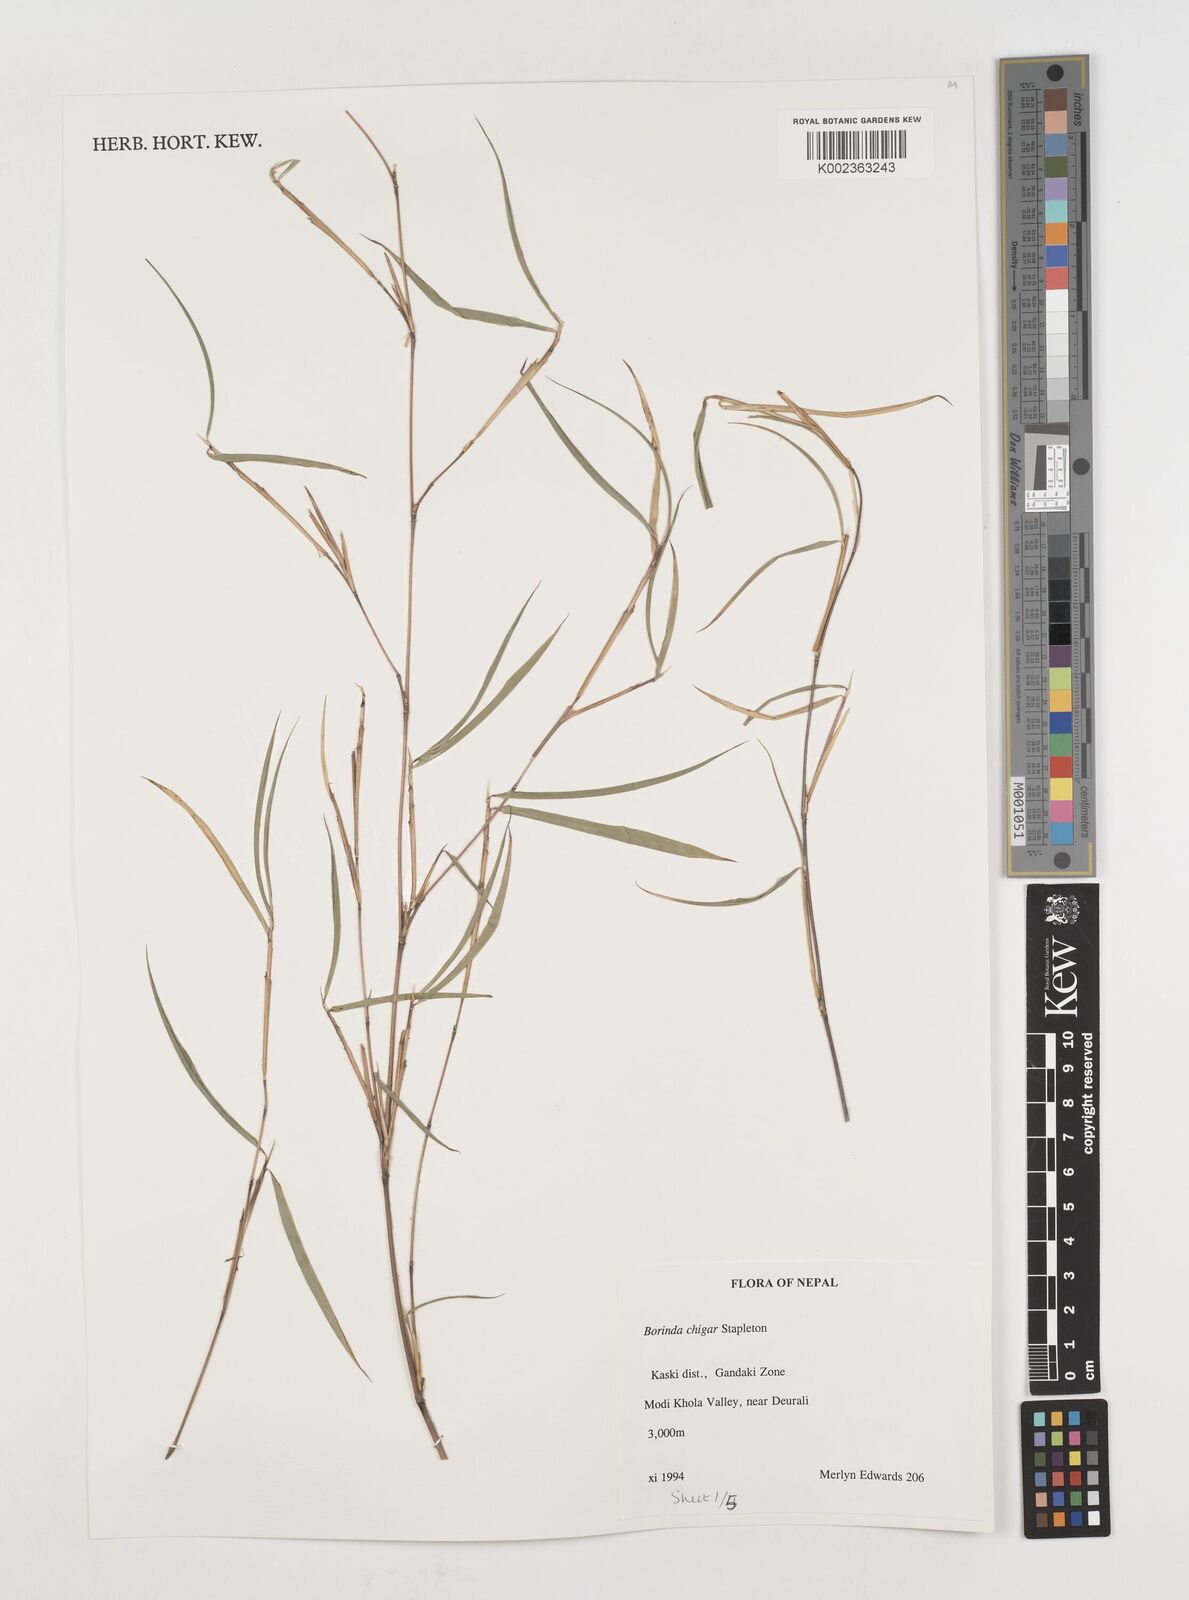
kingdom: Plantae
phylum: Tracheophyta
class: Liliopsida
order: Poales
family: Poaceae
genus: Fargesia
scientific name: Fargesia
